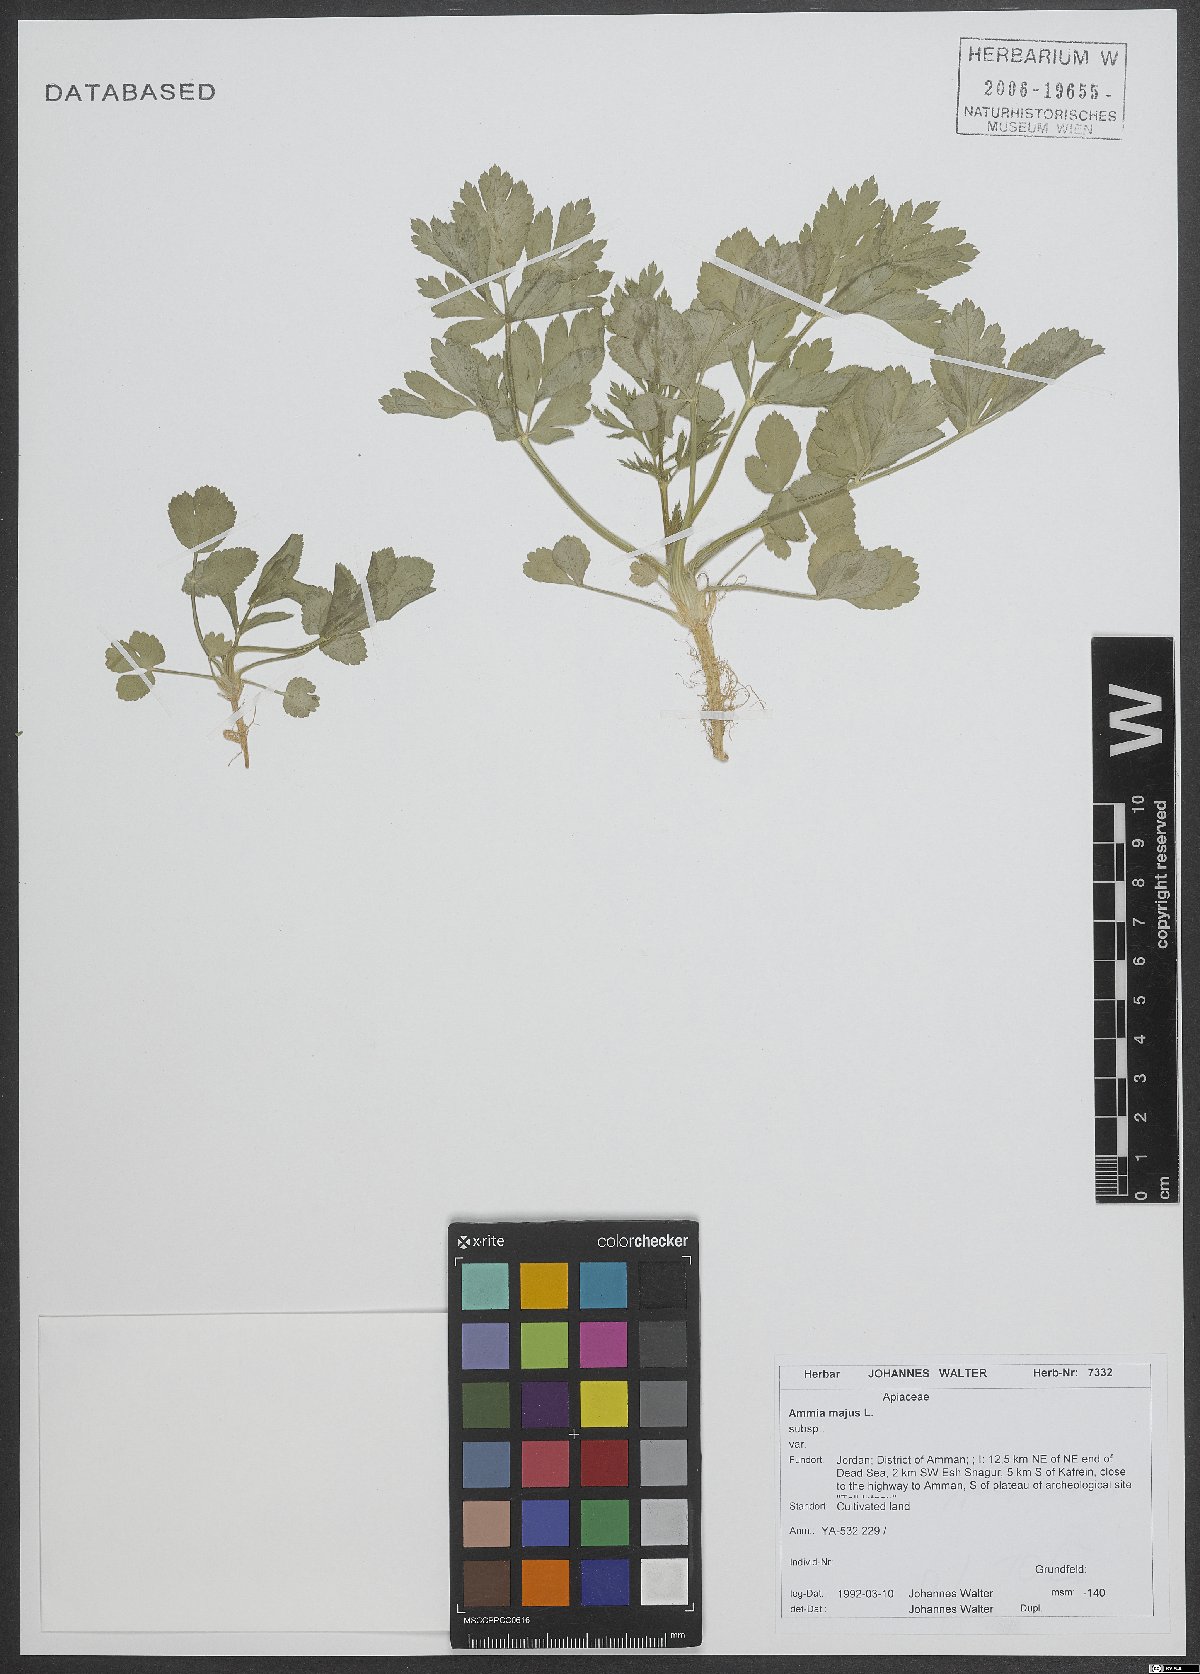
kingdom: Plantae
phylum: Tracheophyta
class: Magnoliopsida
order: Apiales
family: Apiaceae
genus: Ammi
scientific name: Ammi majus
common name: Bullwort
